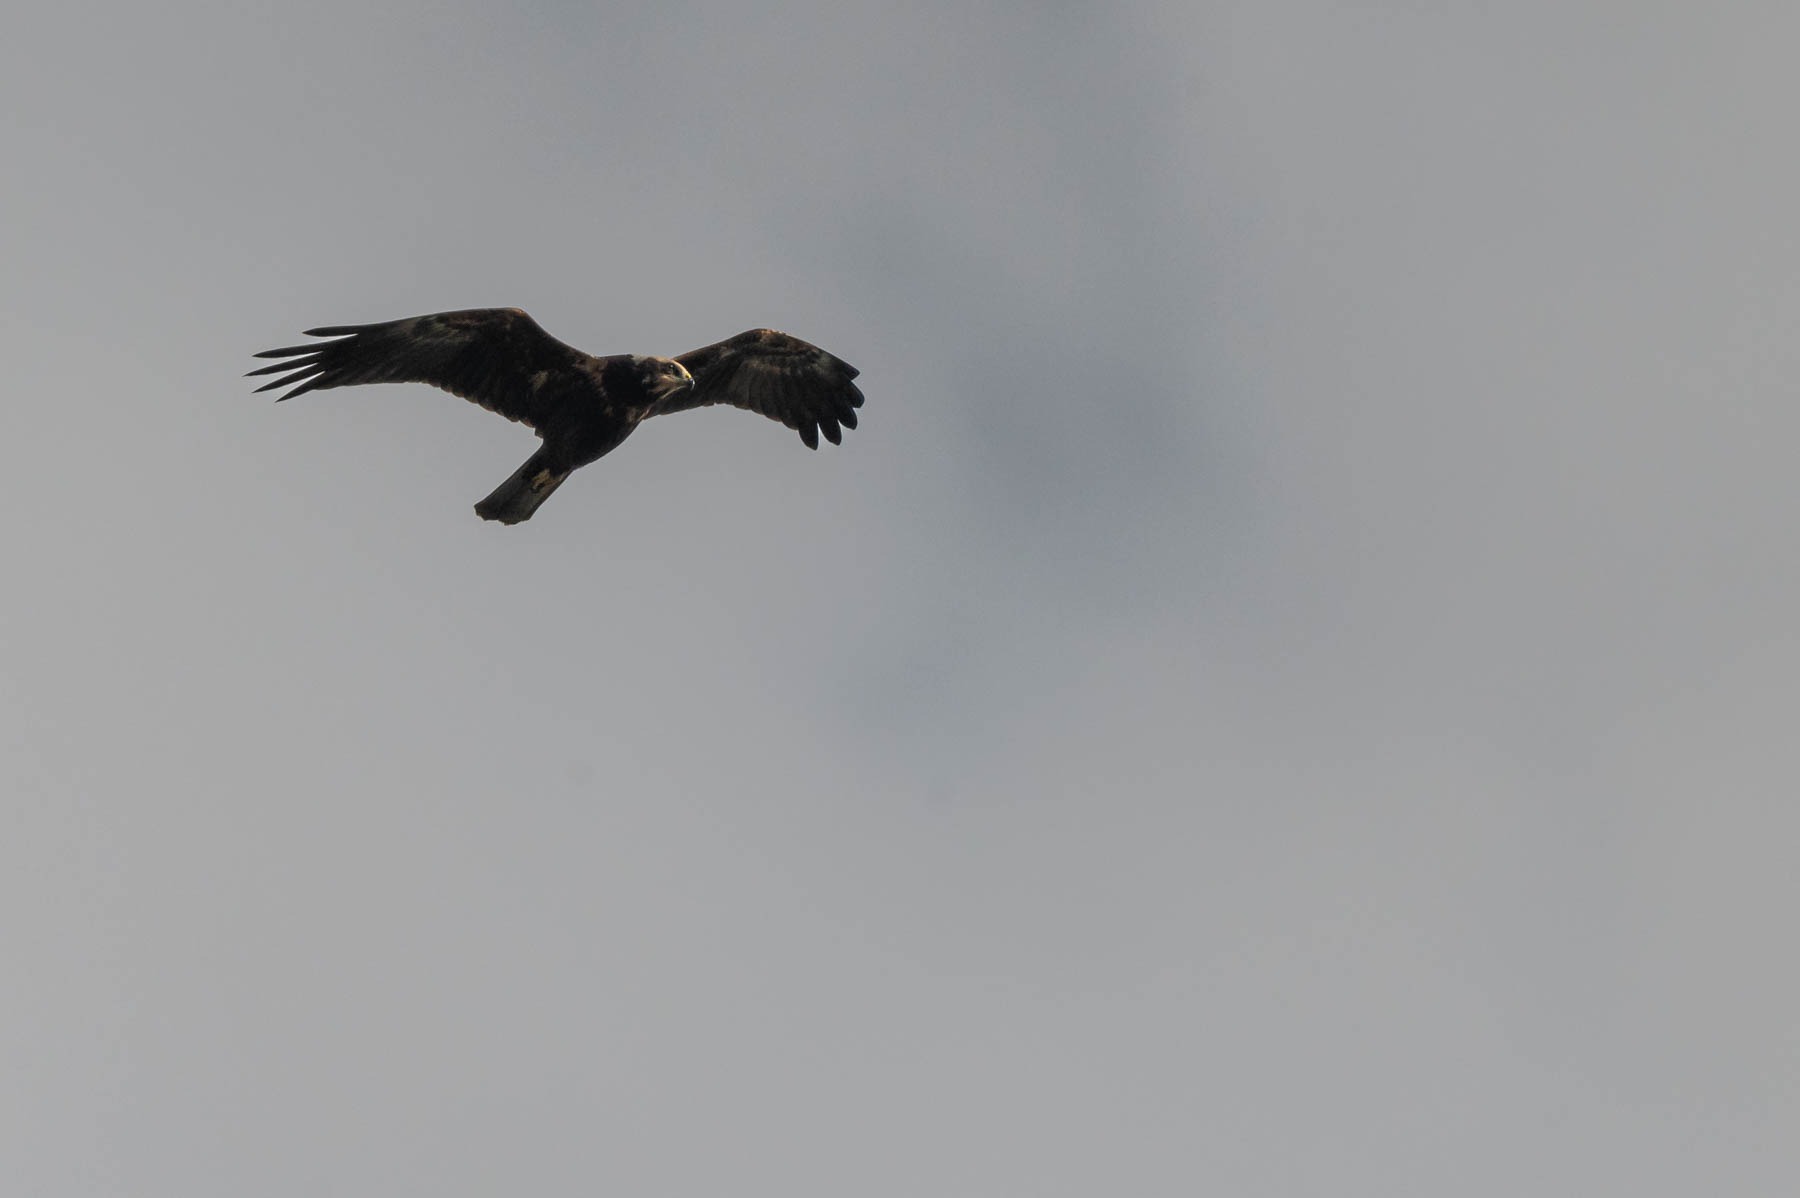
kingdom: Animalia
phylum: Chordata
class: Aves
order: Accipitriformes
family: Accipitridae
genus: Circus
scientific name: Circus aeruginosus
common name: Rørhøg
